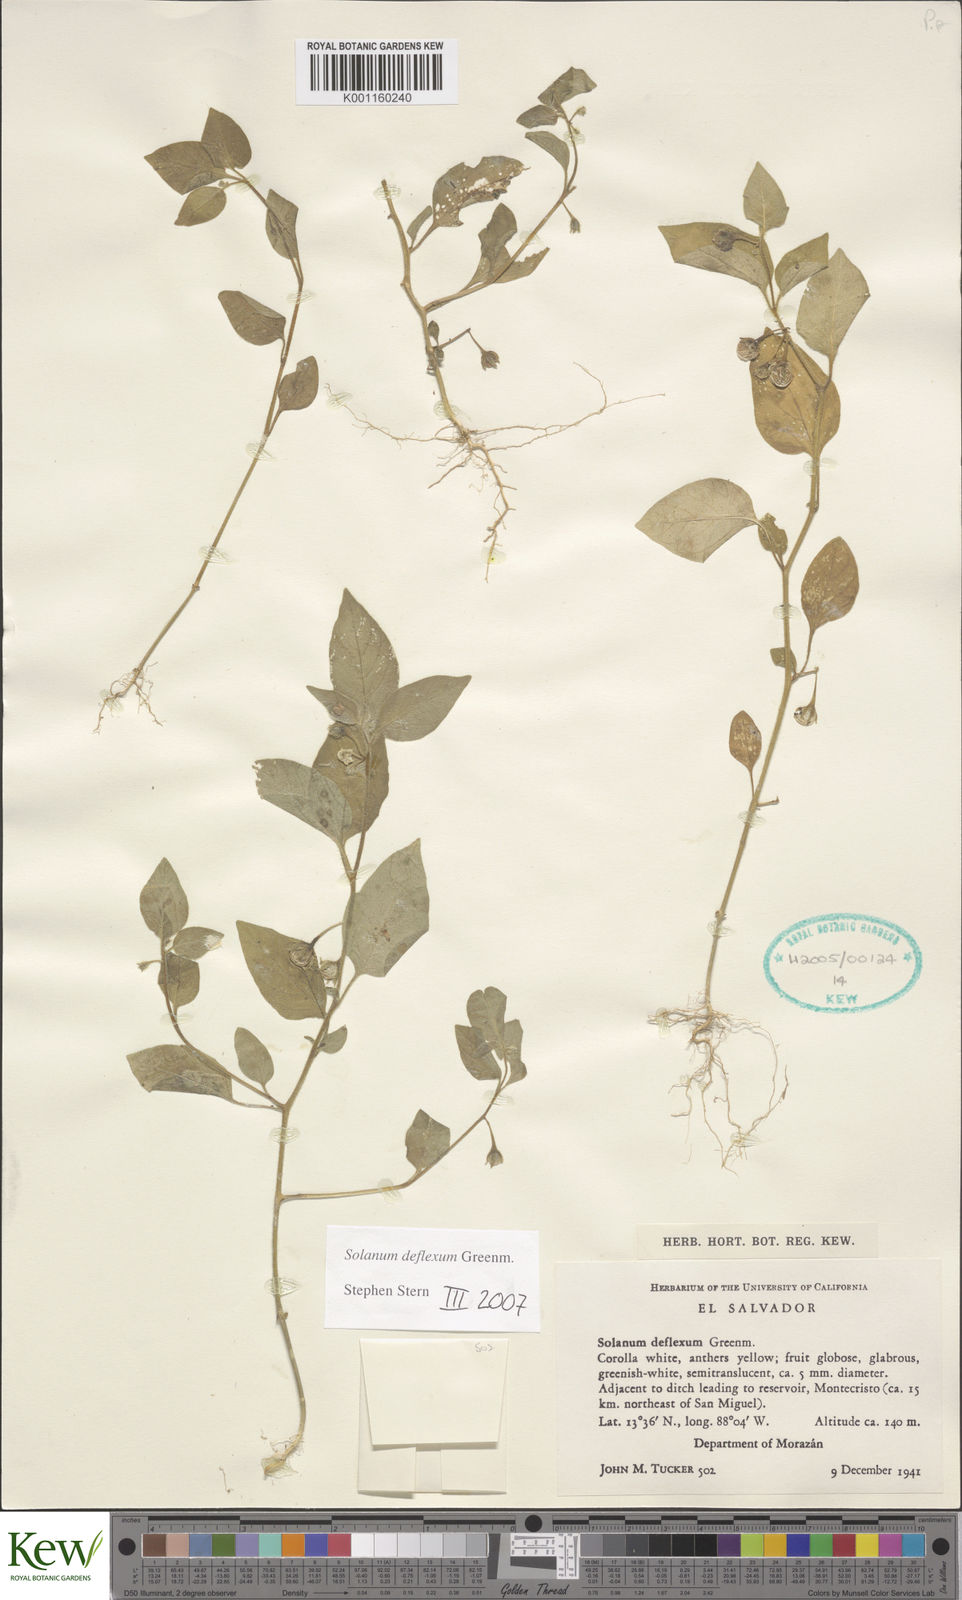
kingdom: Plantae
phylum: Tracheophyta
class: Magnoliopsida
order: Solanales
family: Solanaceae
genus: Solanum
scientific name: Solanum deflexum
